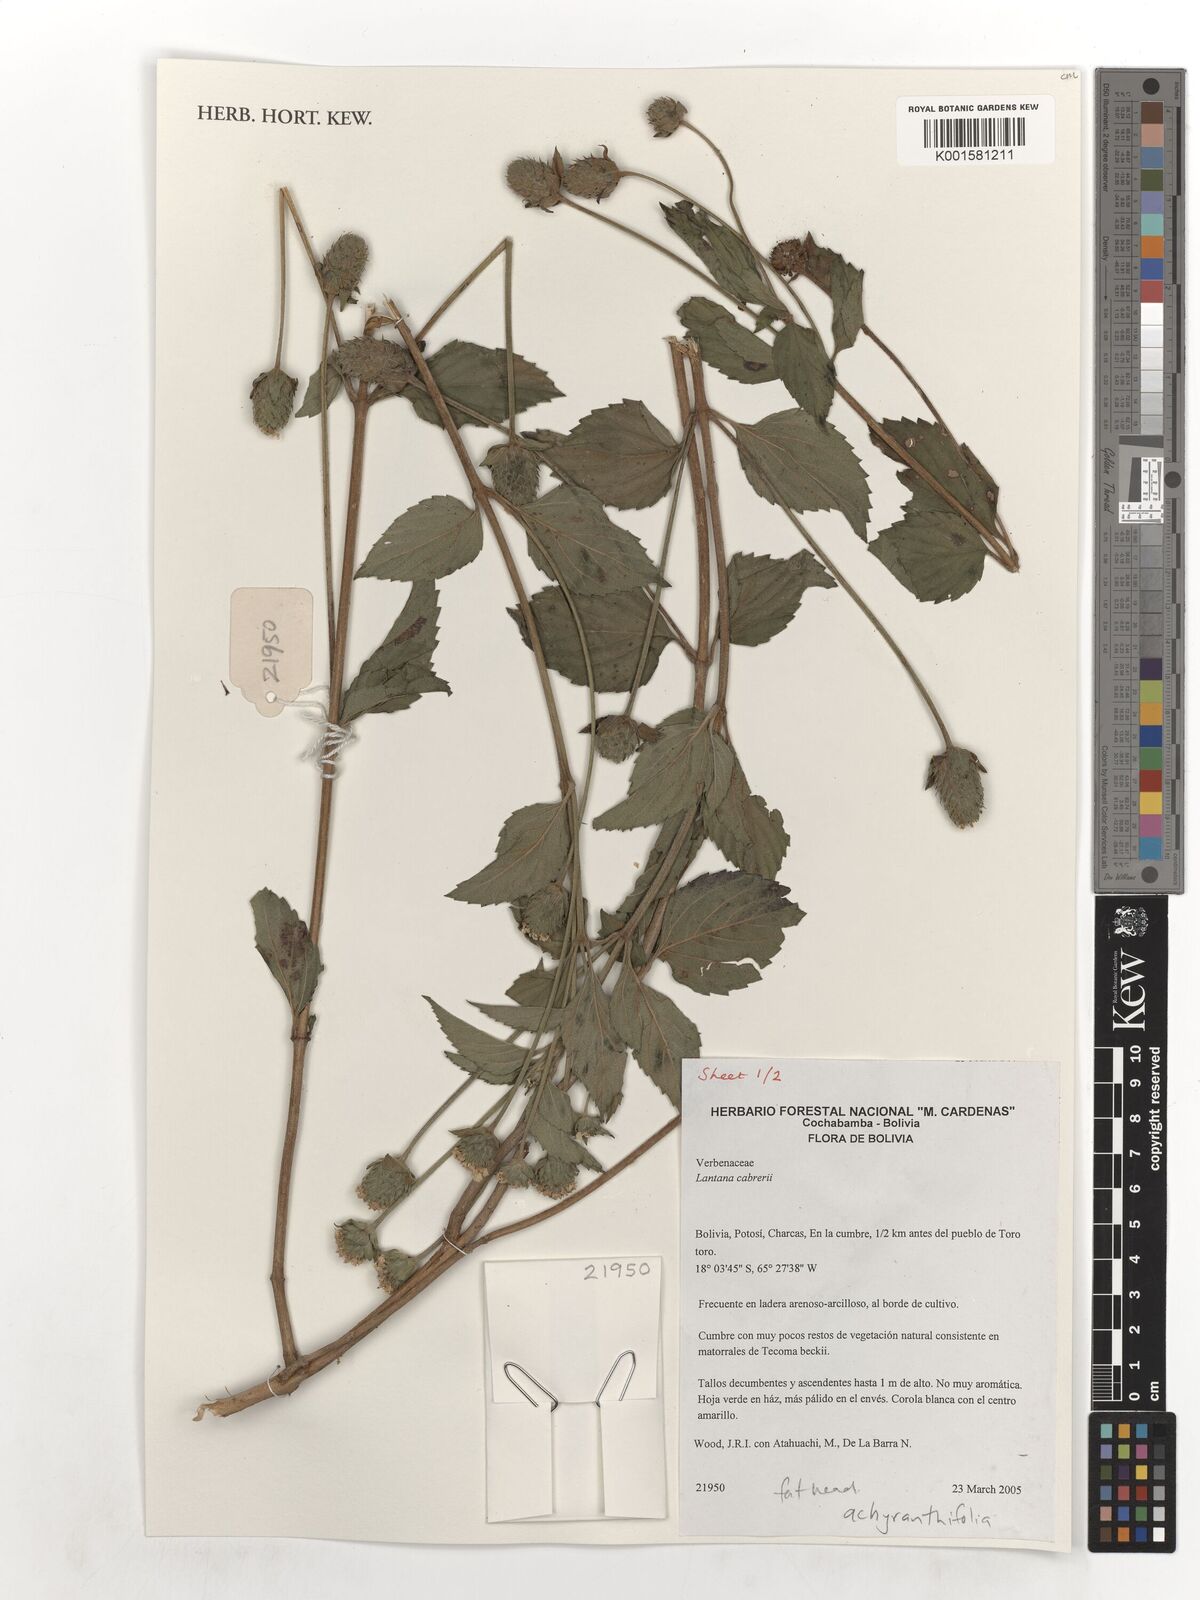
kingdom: Plantae
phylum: Tracheophyta
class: Magnoliopsida
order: Lamiales
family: Verbenaceae
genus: Lantana
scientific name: Lantana achyranthifolia
